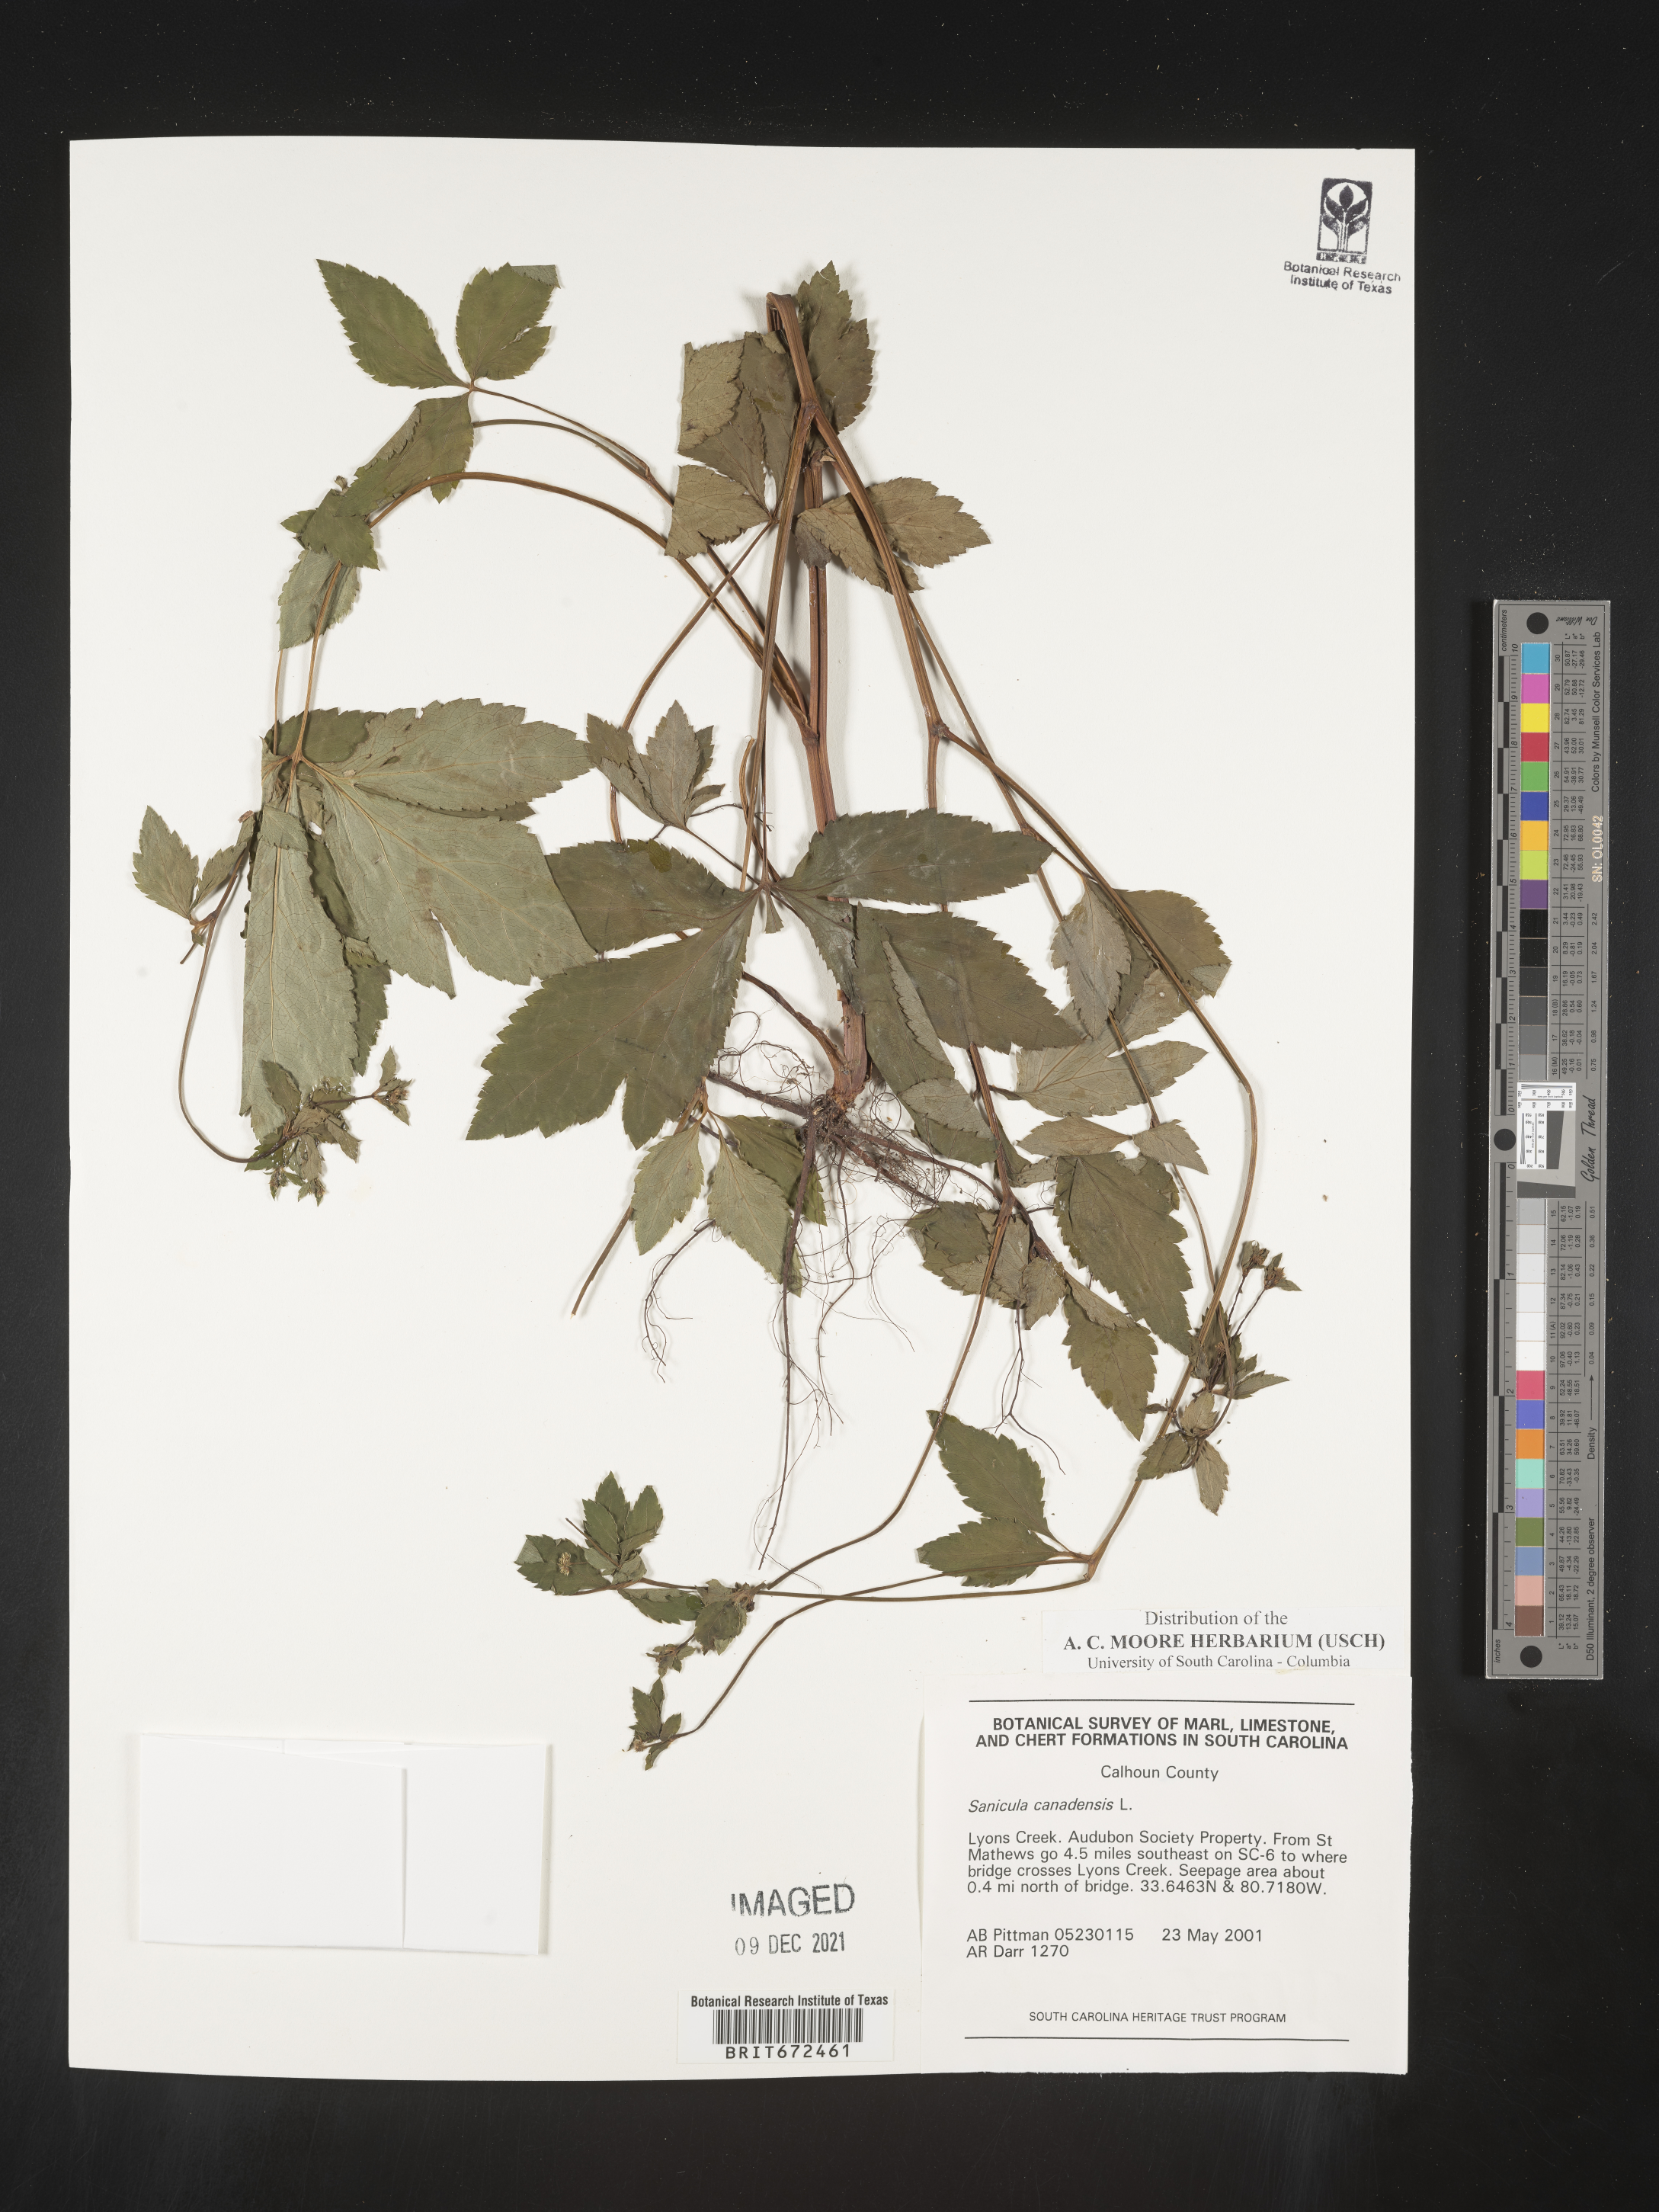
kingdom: Plantae
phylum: Tracheophyta
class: Magnoliopsida
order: Apiales
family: Apiaceae
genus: Sanicula
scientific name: Sanicula canadensis
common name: Canada sanicle
